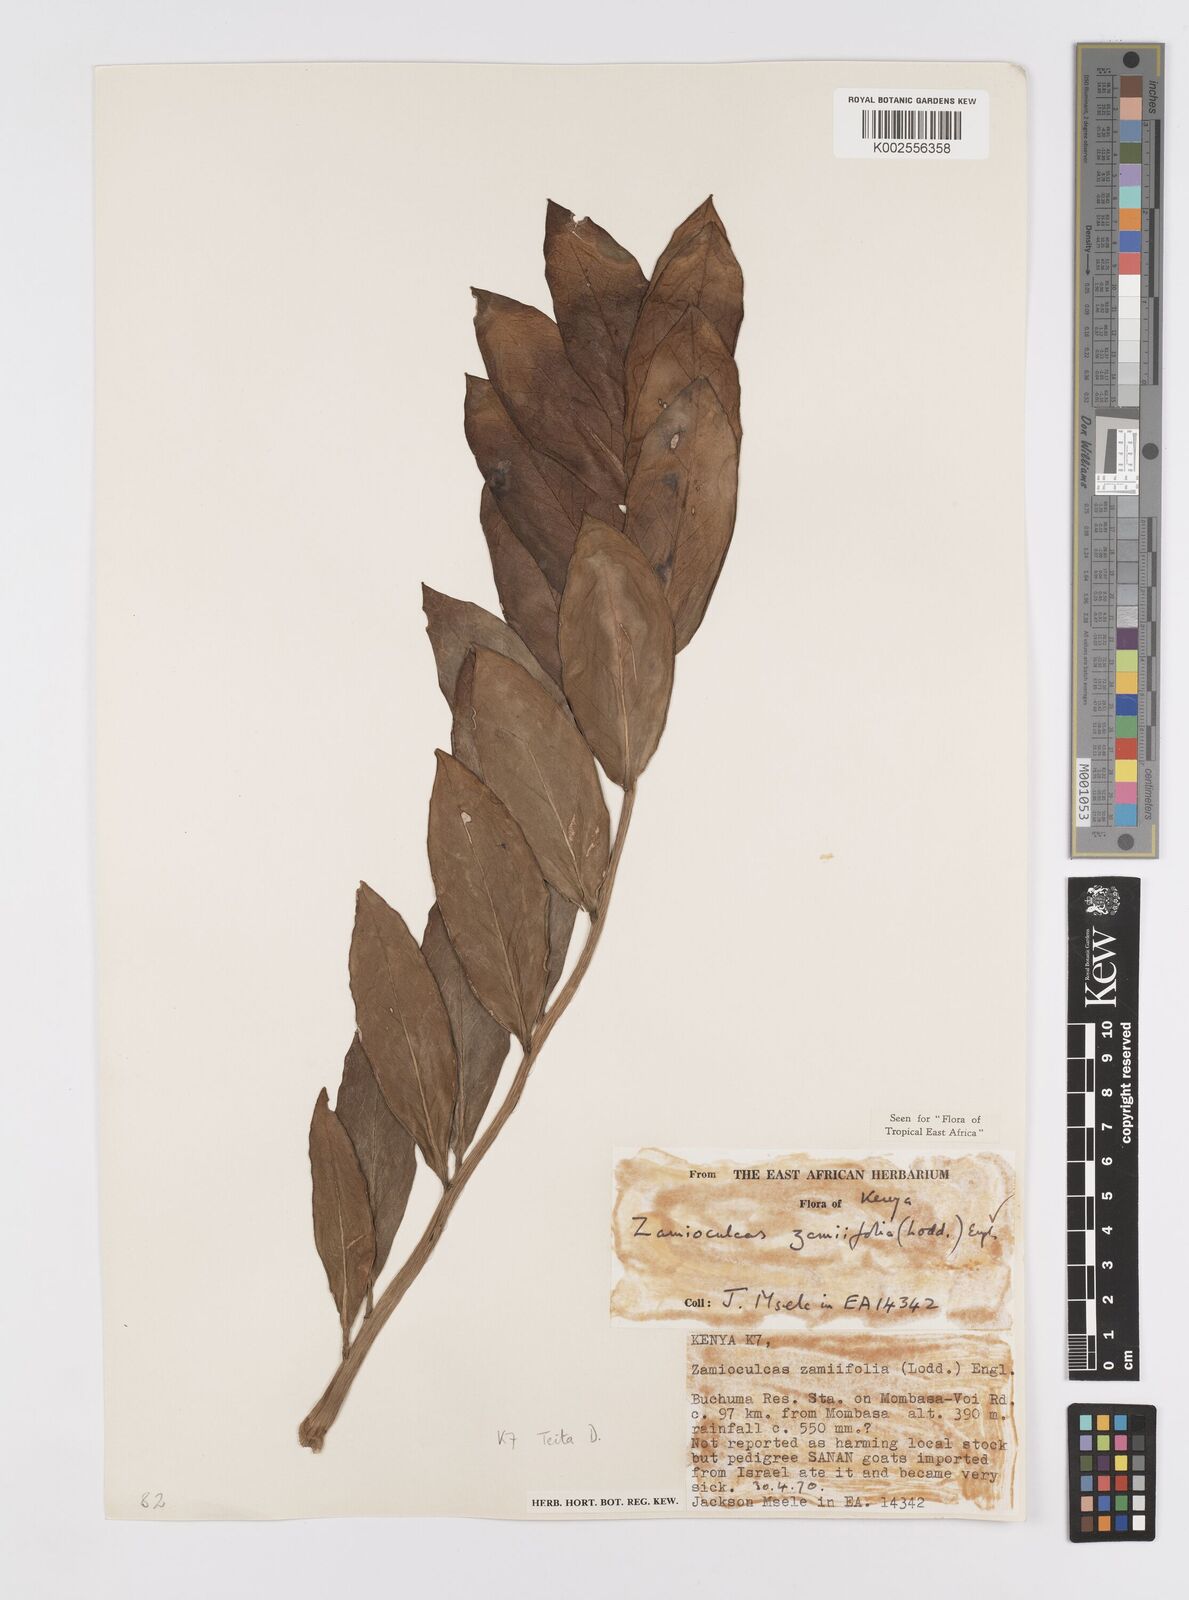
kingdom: Plantae
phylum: Tracheophyta
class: Liliopsida
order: Alismatales
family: Araceae
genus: Zamioculcas
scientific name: Zamioculcas zamiifolia
